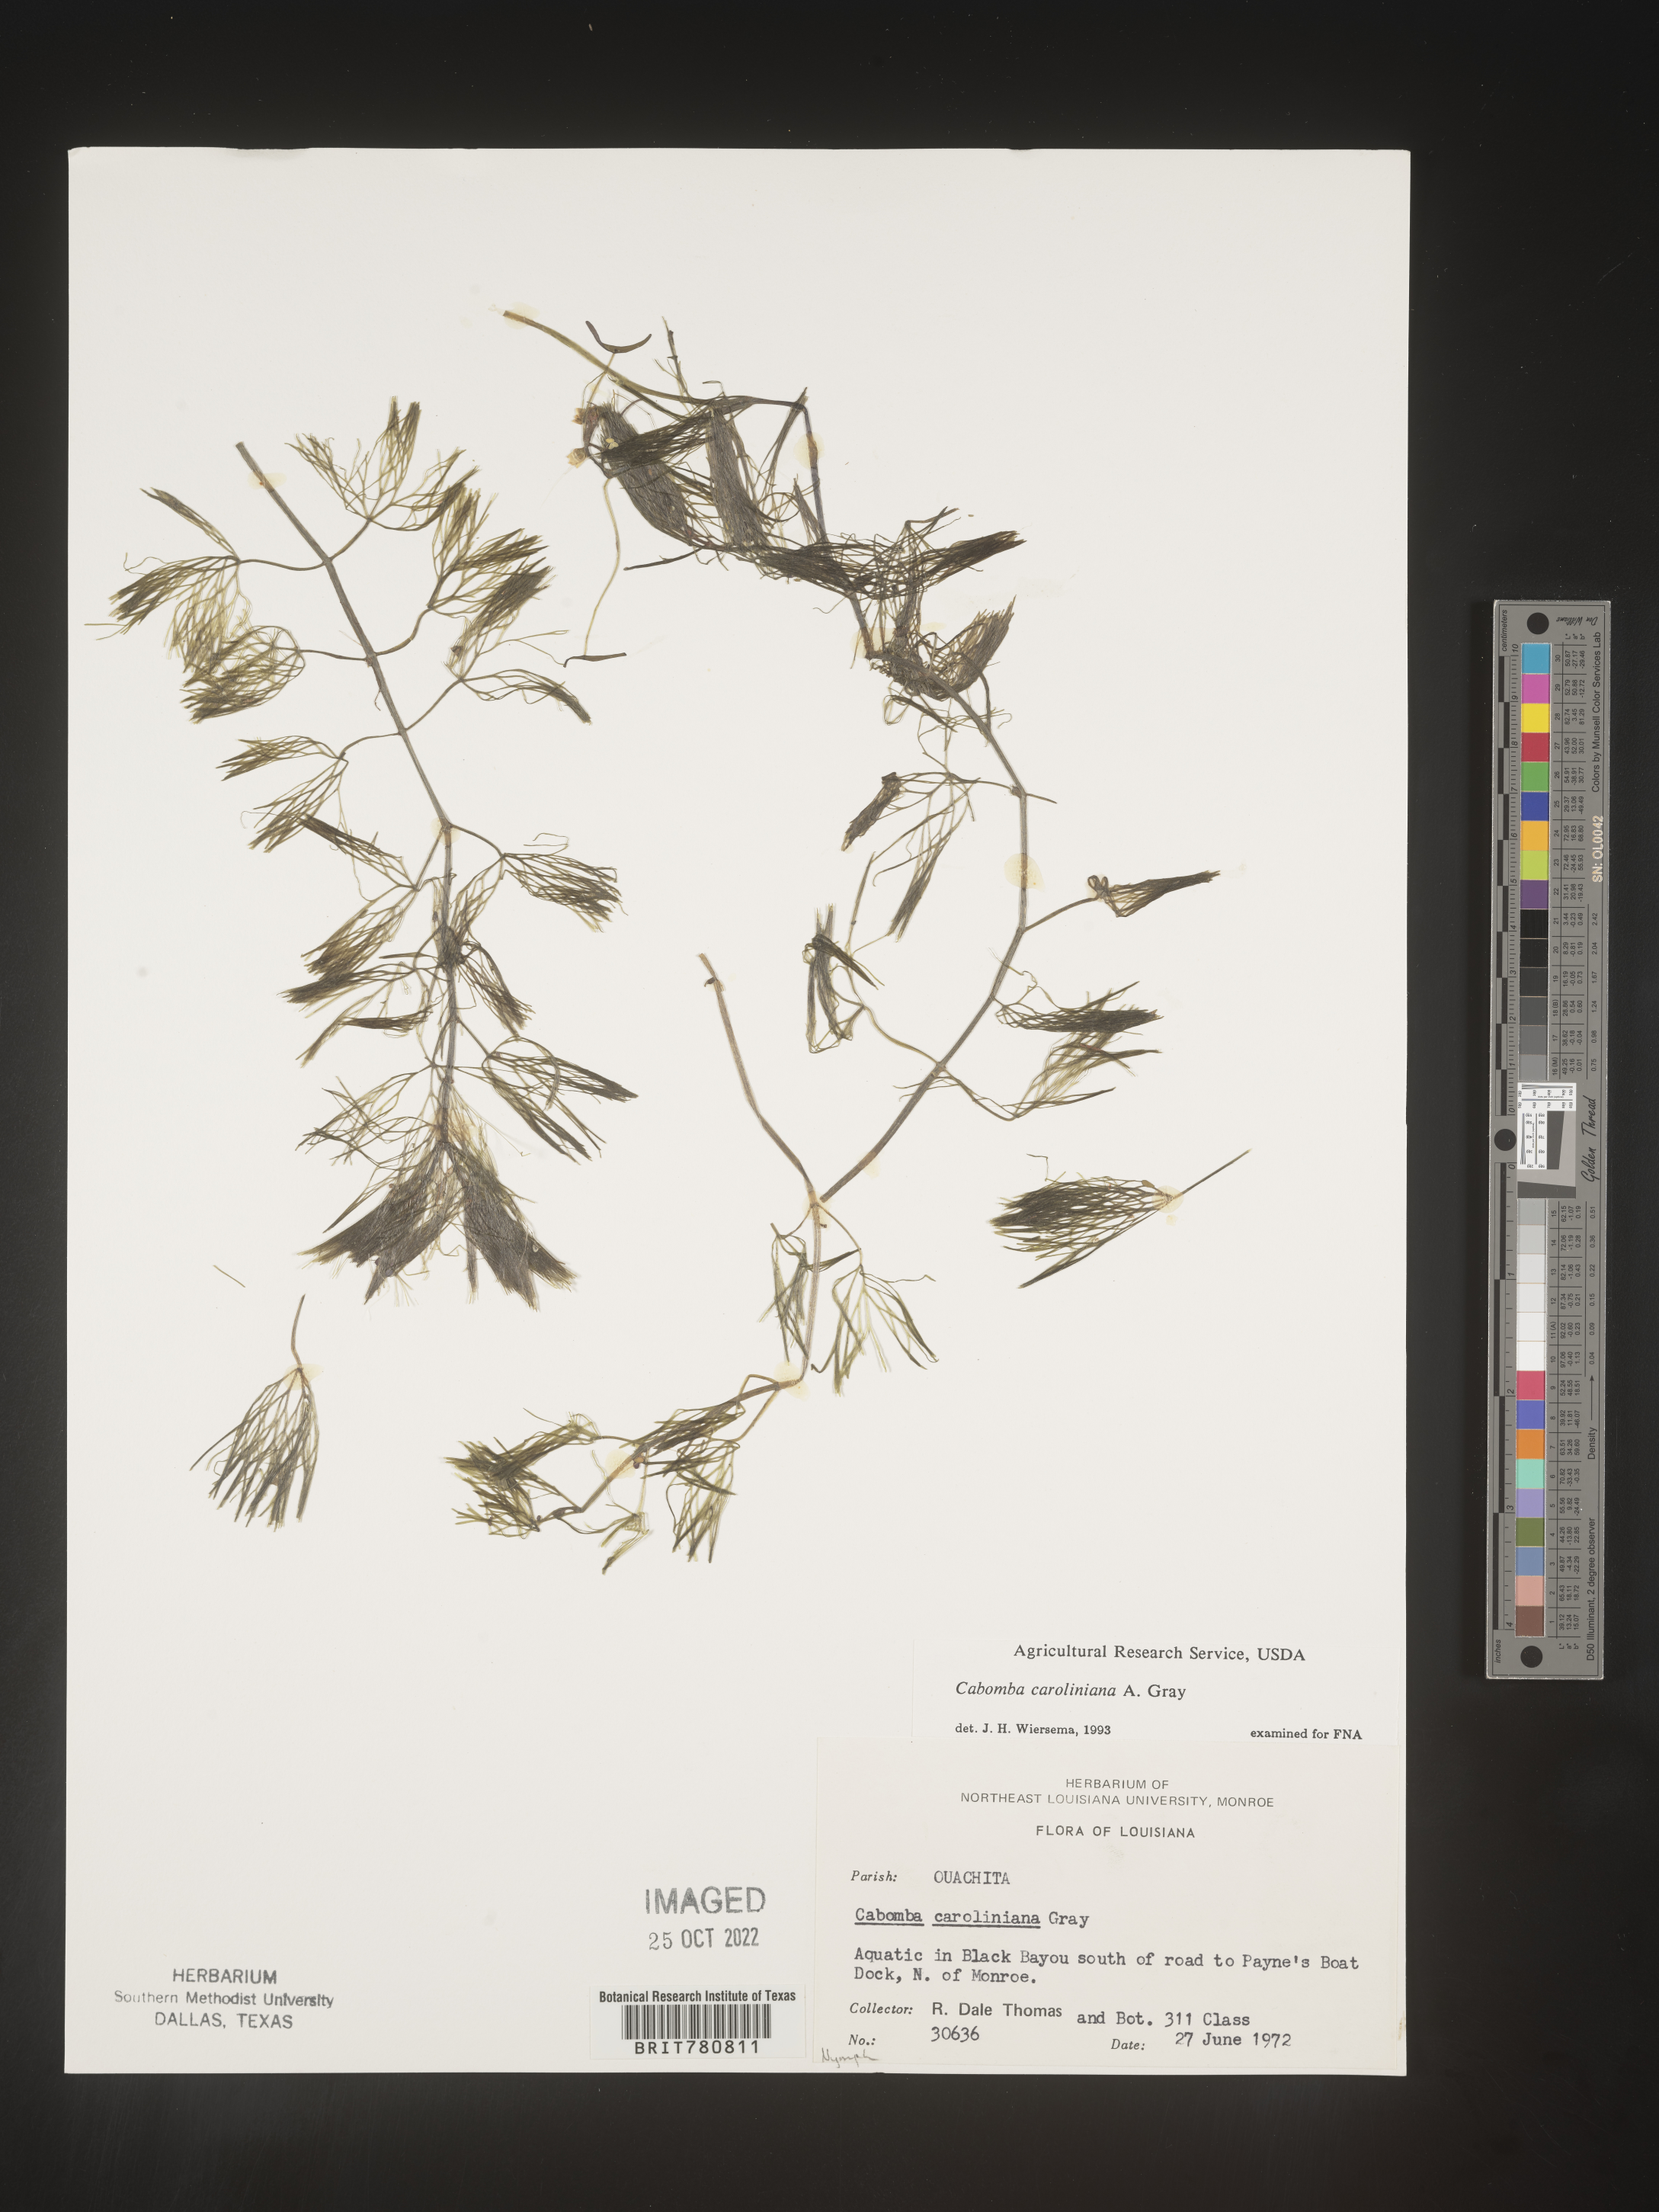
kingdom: Plantae
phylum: Tracheophyta
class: Magnoliopsida
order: Nymphaeales
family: Cabombaceae
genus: Cabomba
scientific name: Cabomba
